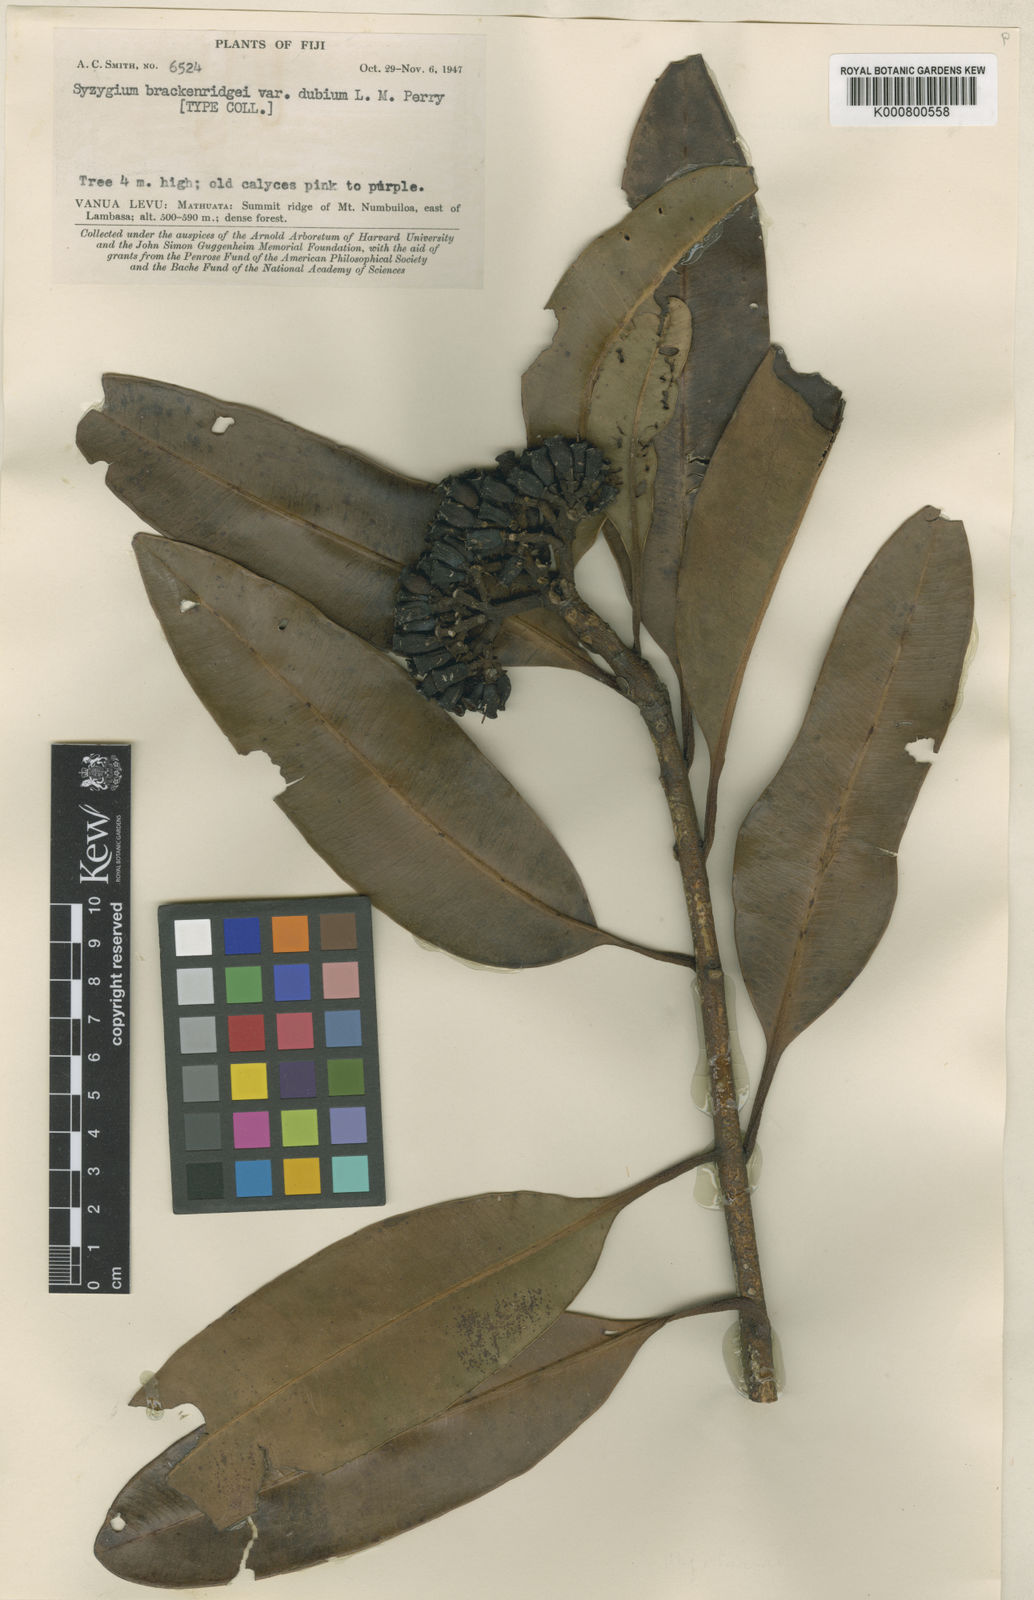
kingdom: Plantae
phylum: Tracheophyta
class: Magnoliopsida
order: Myrtales
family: Myrtaceae
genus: Syzygium
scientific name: Syzygium
